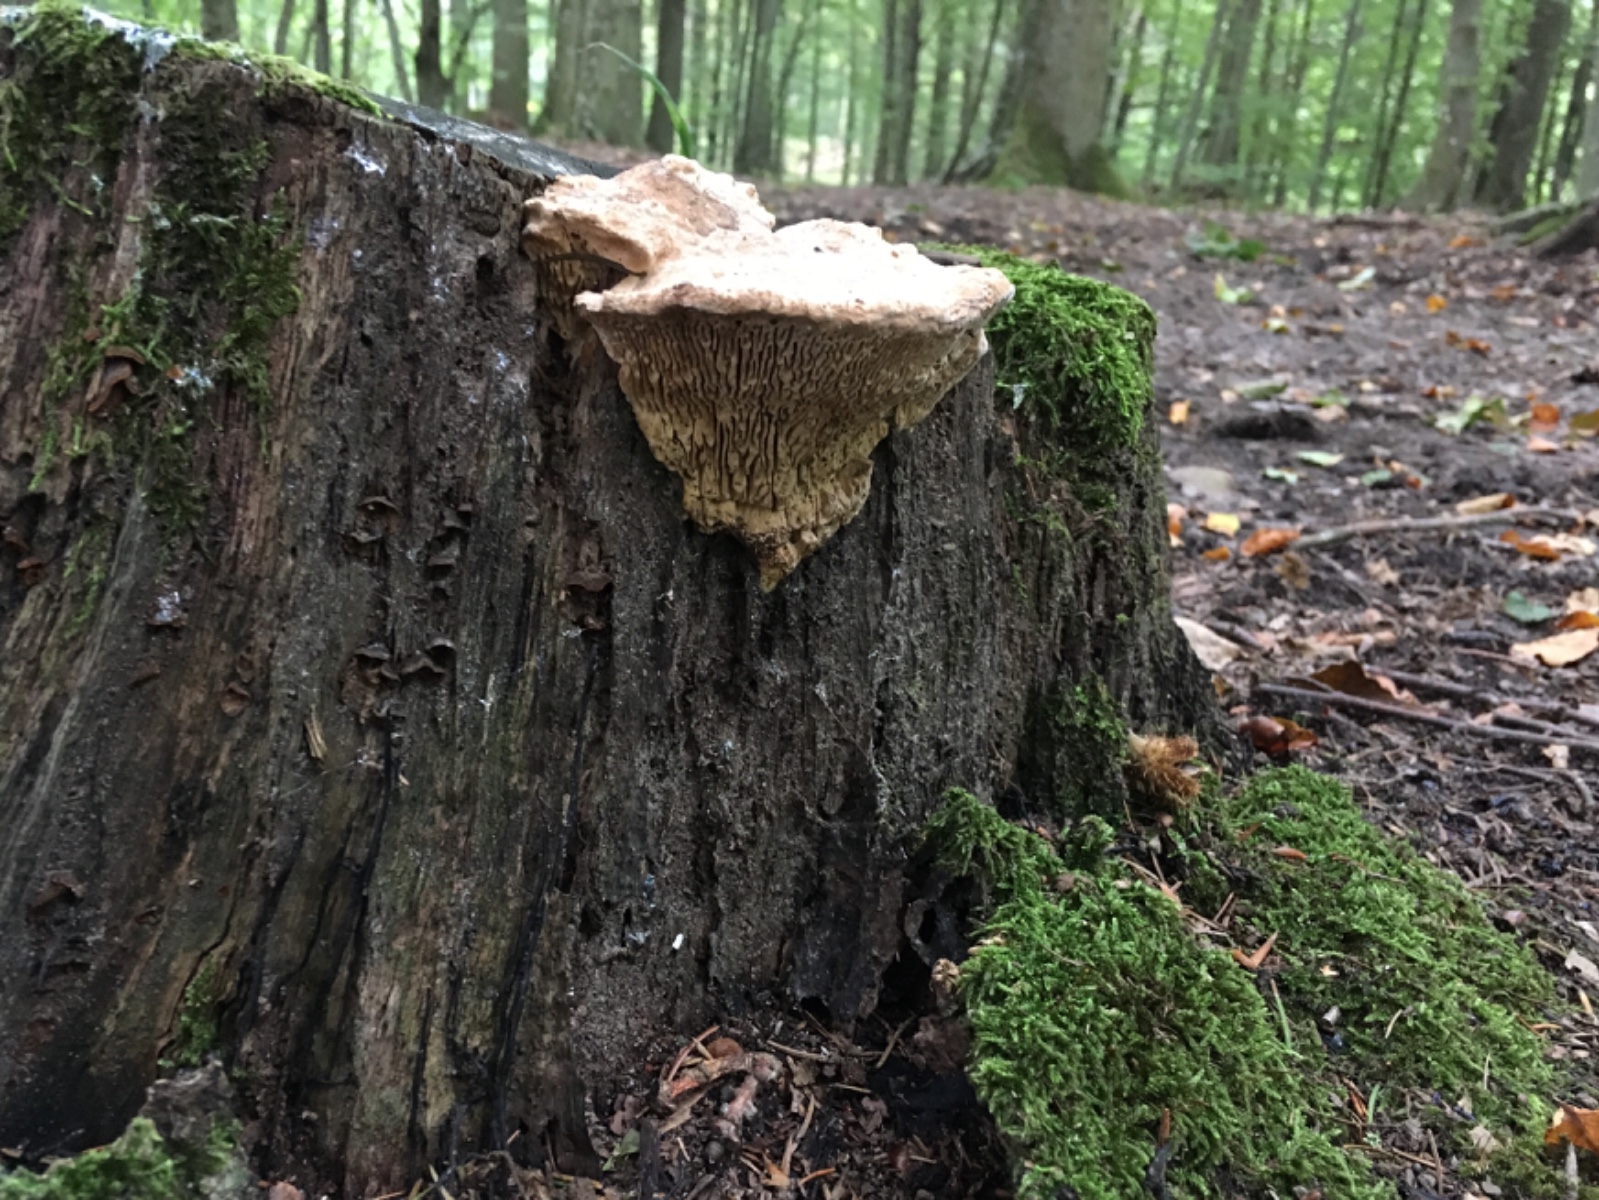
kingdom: Fungi
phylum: Basidiomycota
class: Agaricomycetes
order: Polyporales
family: Fomitopsidaceae
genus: Daedalea
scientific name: Daedalea quercina
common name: ege-labyrintsvamp
